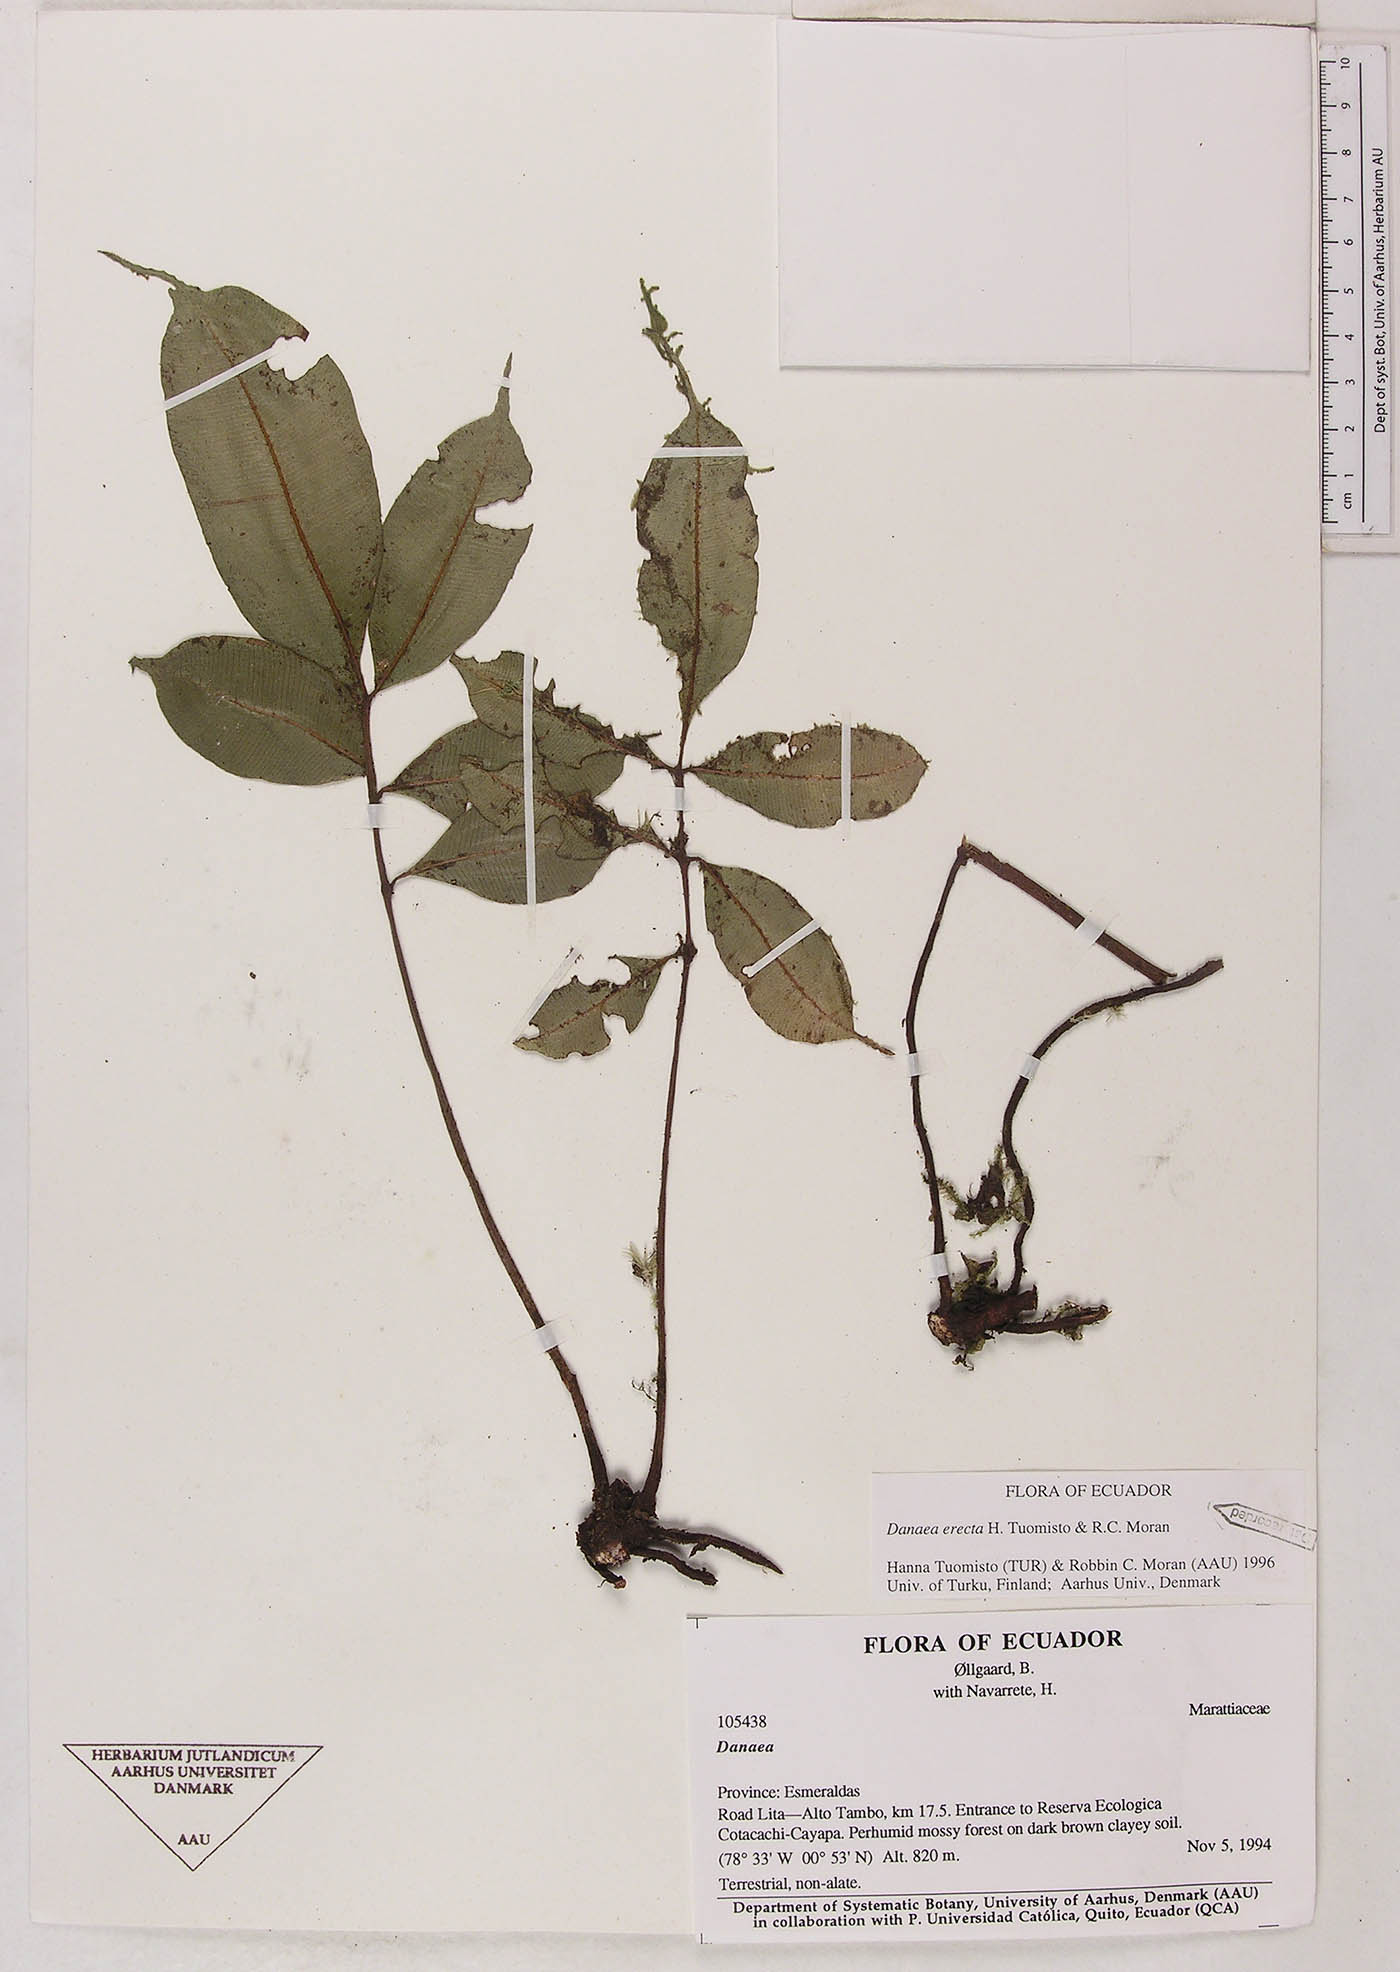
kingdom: Plantae
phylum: Tracheophyta
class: Polypodiopsida
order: Marattiales
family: Marattiaceae
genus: Danaea
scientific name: Danaea
